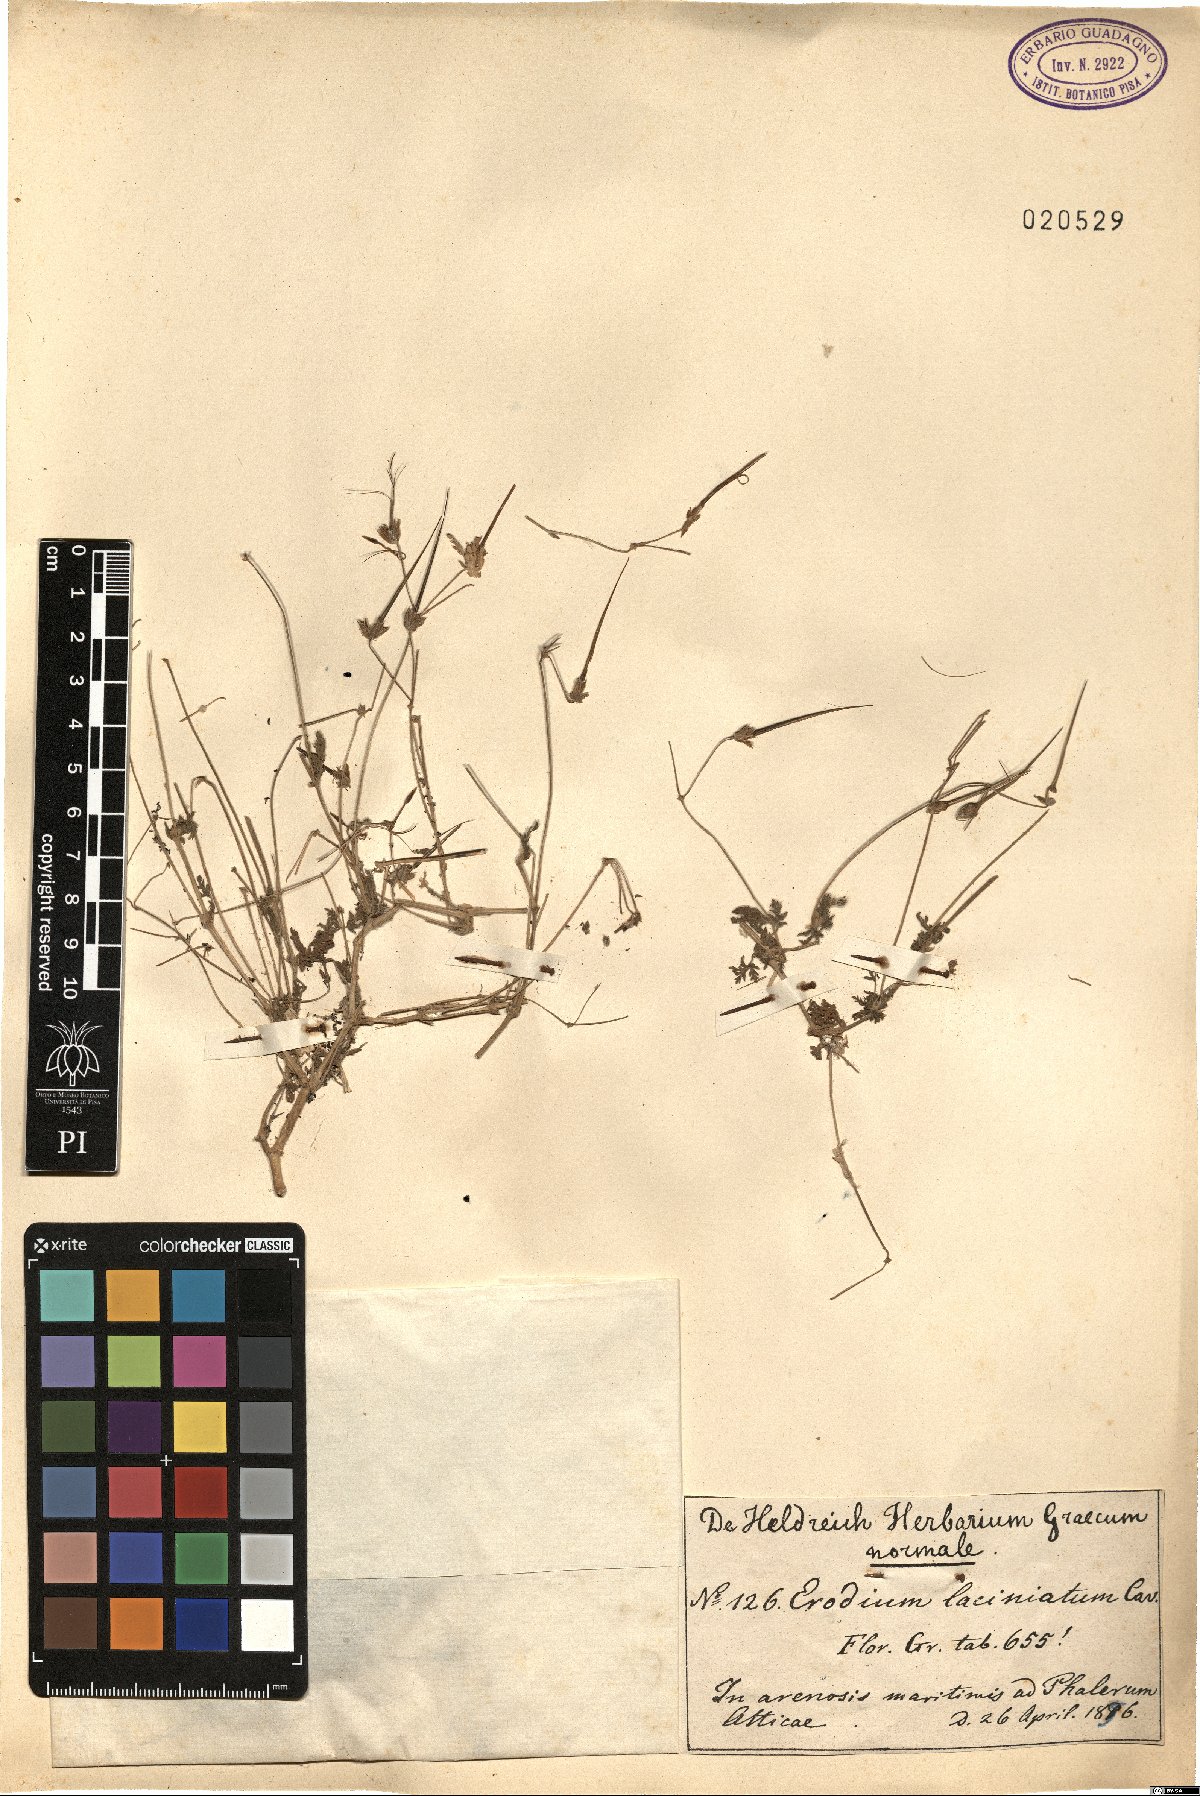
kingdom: Plantae
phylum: Tracheophyta
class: Magnoliopsida
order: Geraniales
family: Geraniaceae
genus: Erodium
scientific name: Erodium laciniatum
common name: Cutleaf stork's bill
